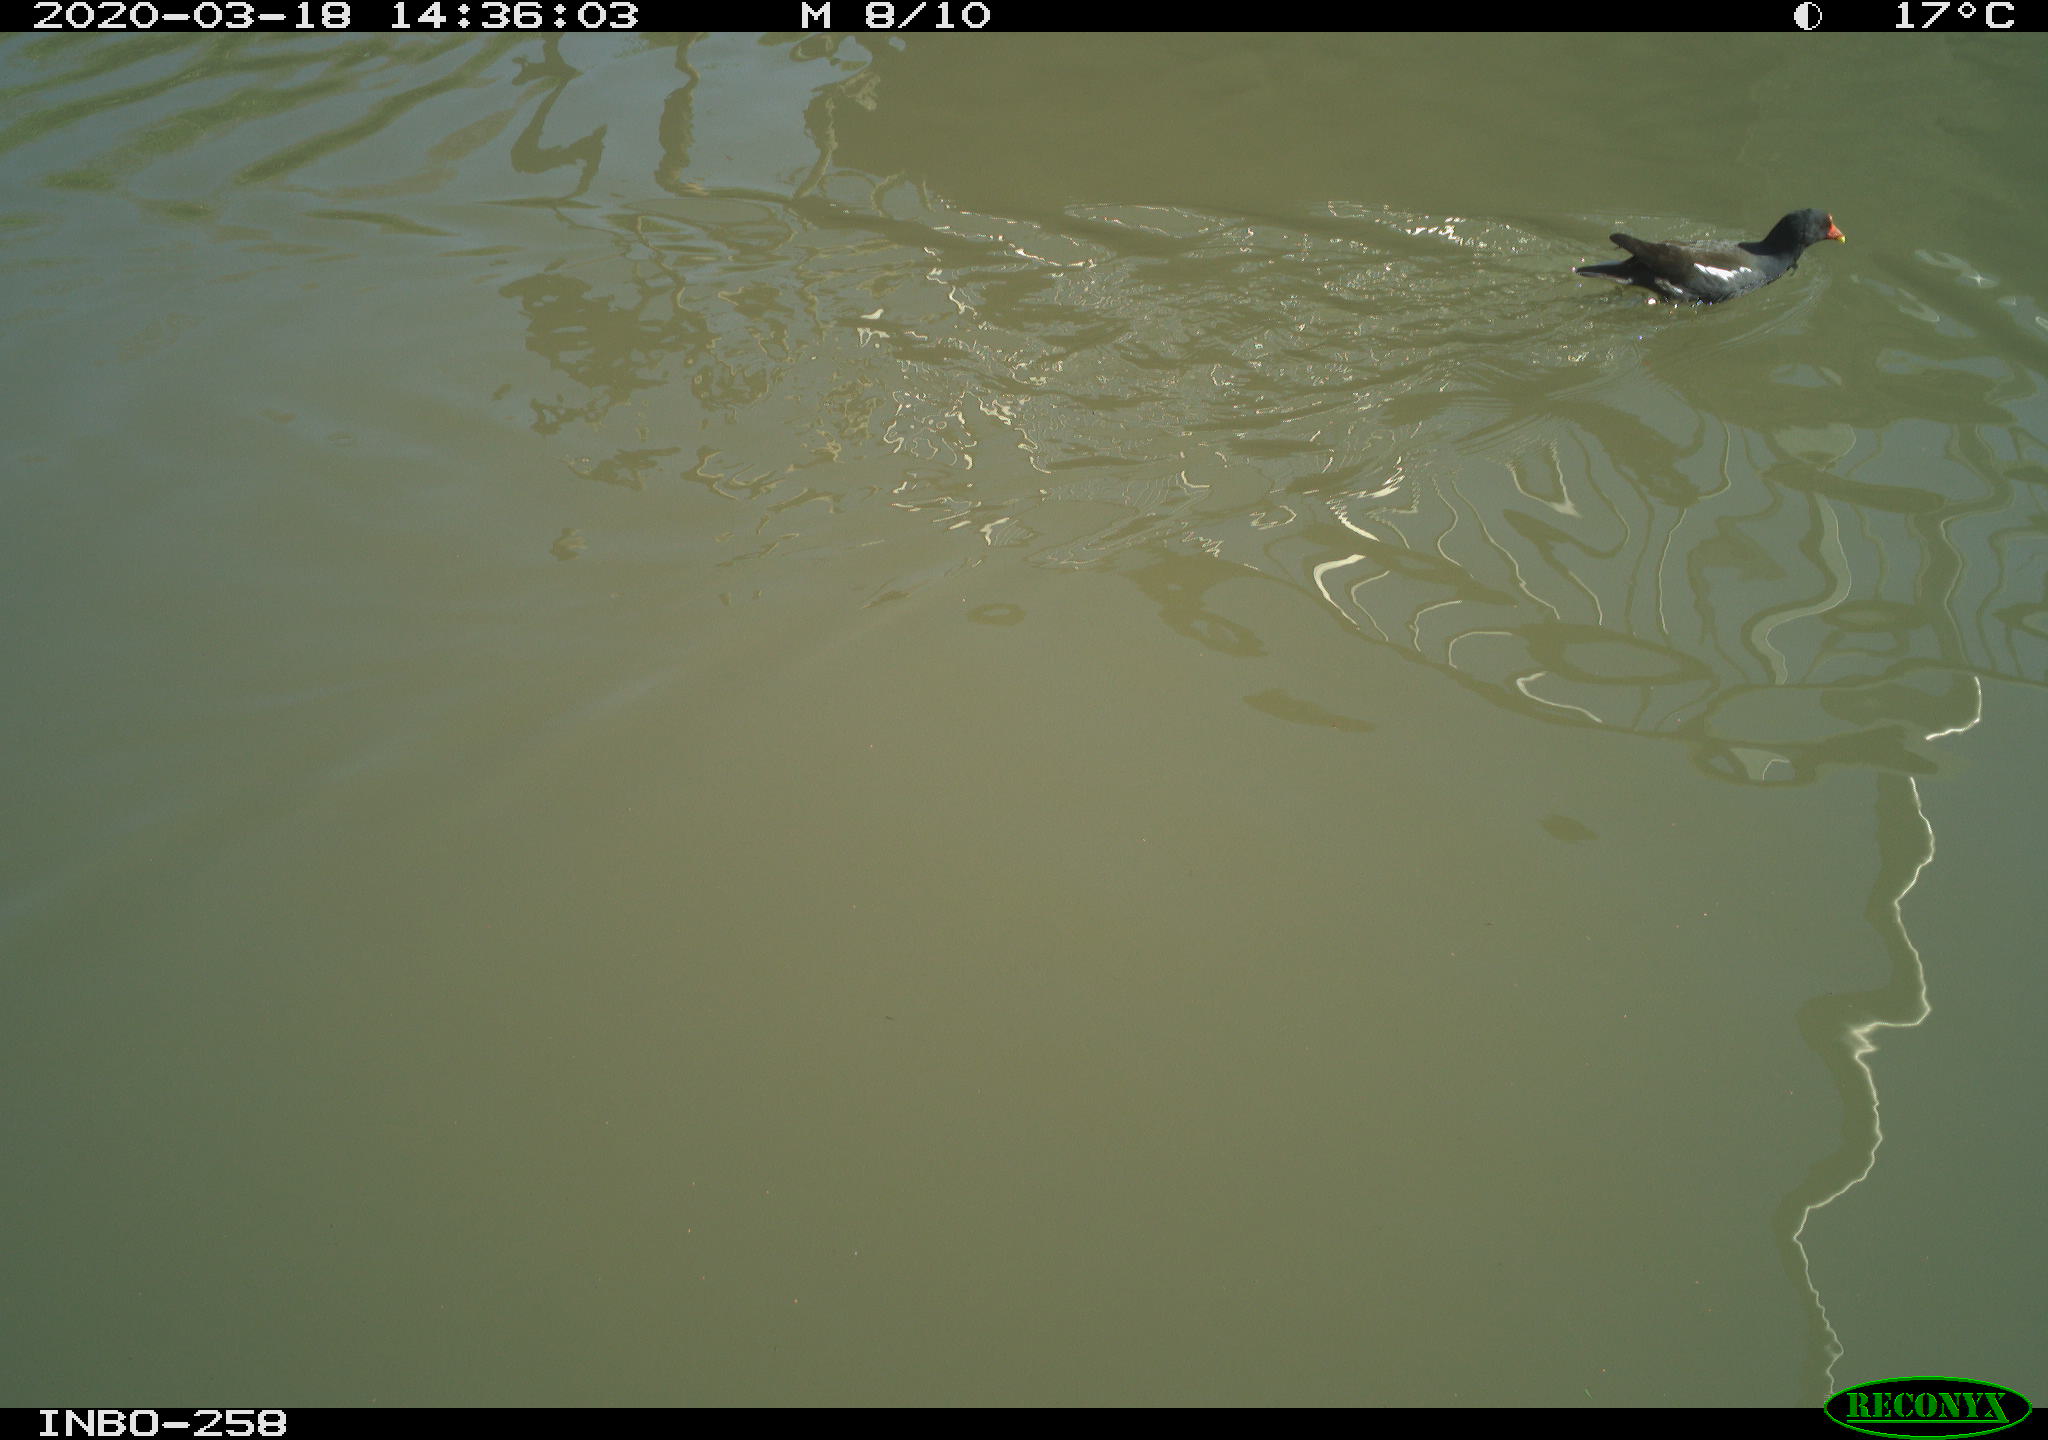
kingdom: Animalia
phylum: Chordata
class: Aves
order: Gruiformes
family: Rallidae
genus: Gallinula
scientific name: Gallinula chloropus
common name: Common moorhen
